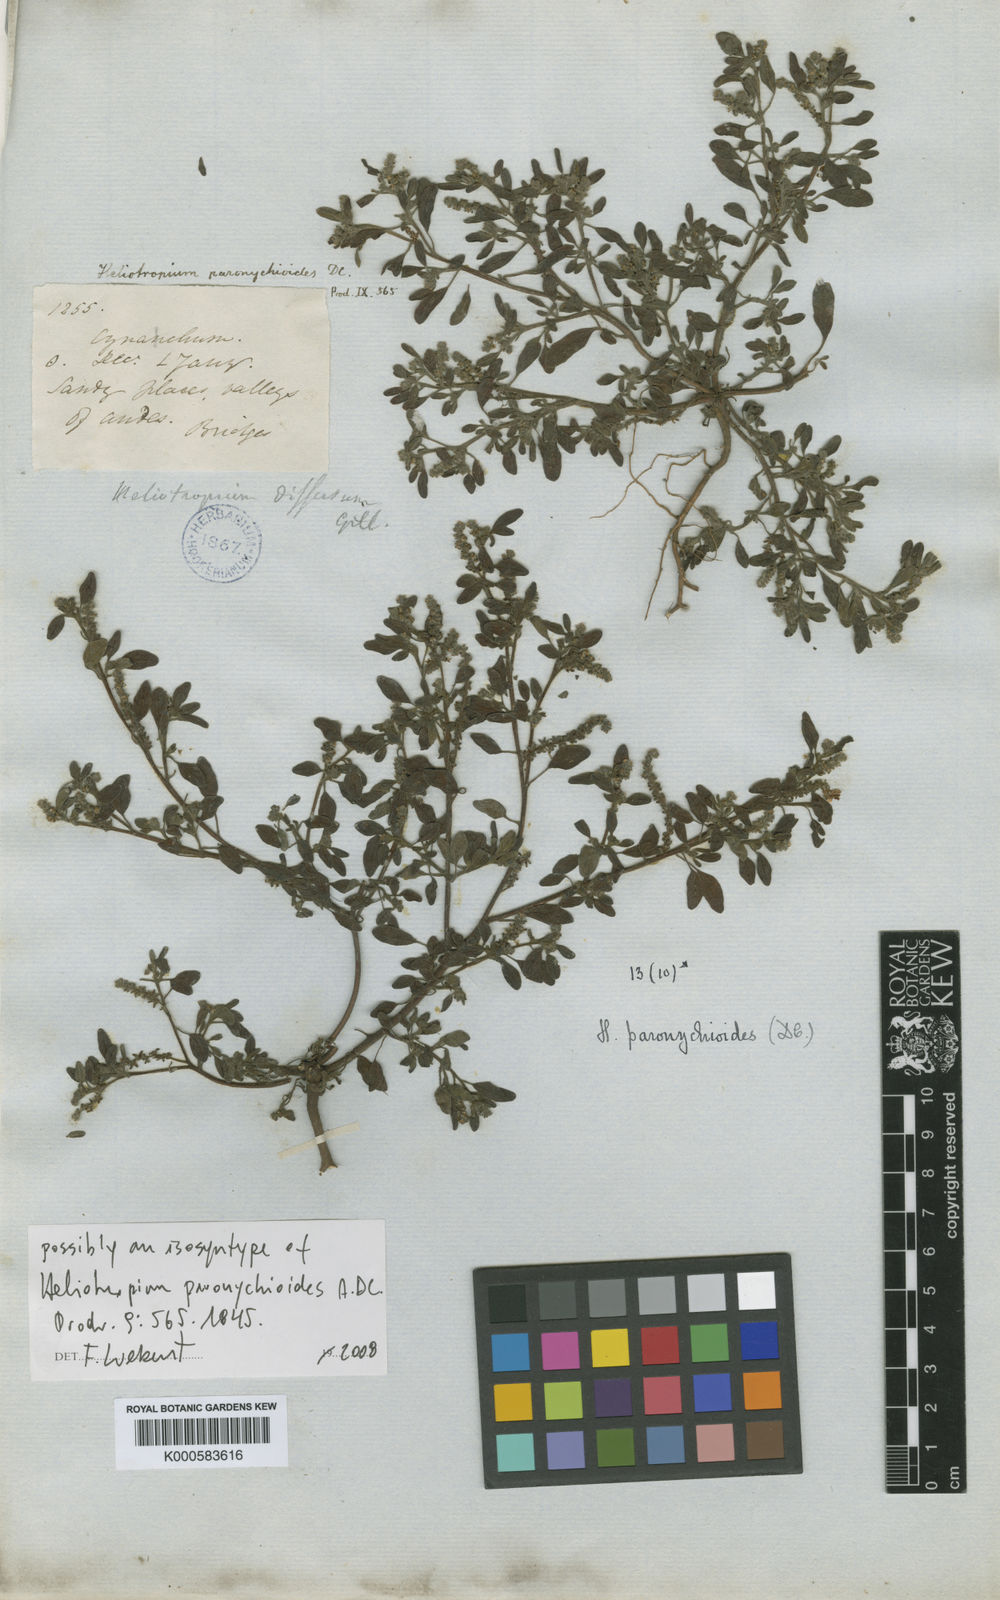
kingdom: Plantae
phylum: Tracheophyta
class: Magnoliopsida
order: Boraginales
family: Heliotropiaceae
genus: Heliotropium
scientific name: Heliotropium paronychioides
